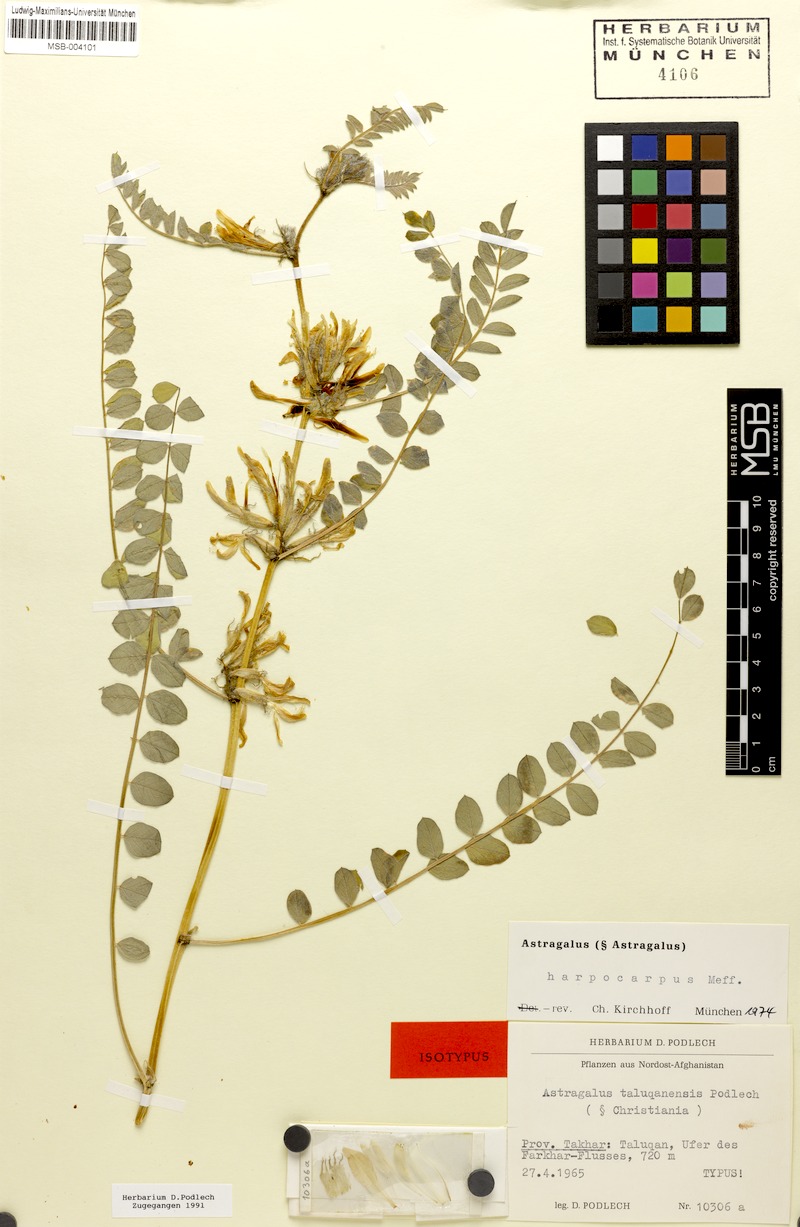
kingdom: Plantae
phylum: Tracheophyta
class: Magnoliopsida
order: Fabales
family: Fabaceae
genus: Astragalus
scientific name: Astragalus harpocarpus
